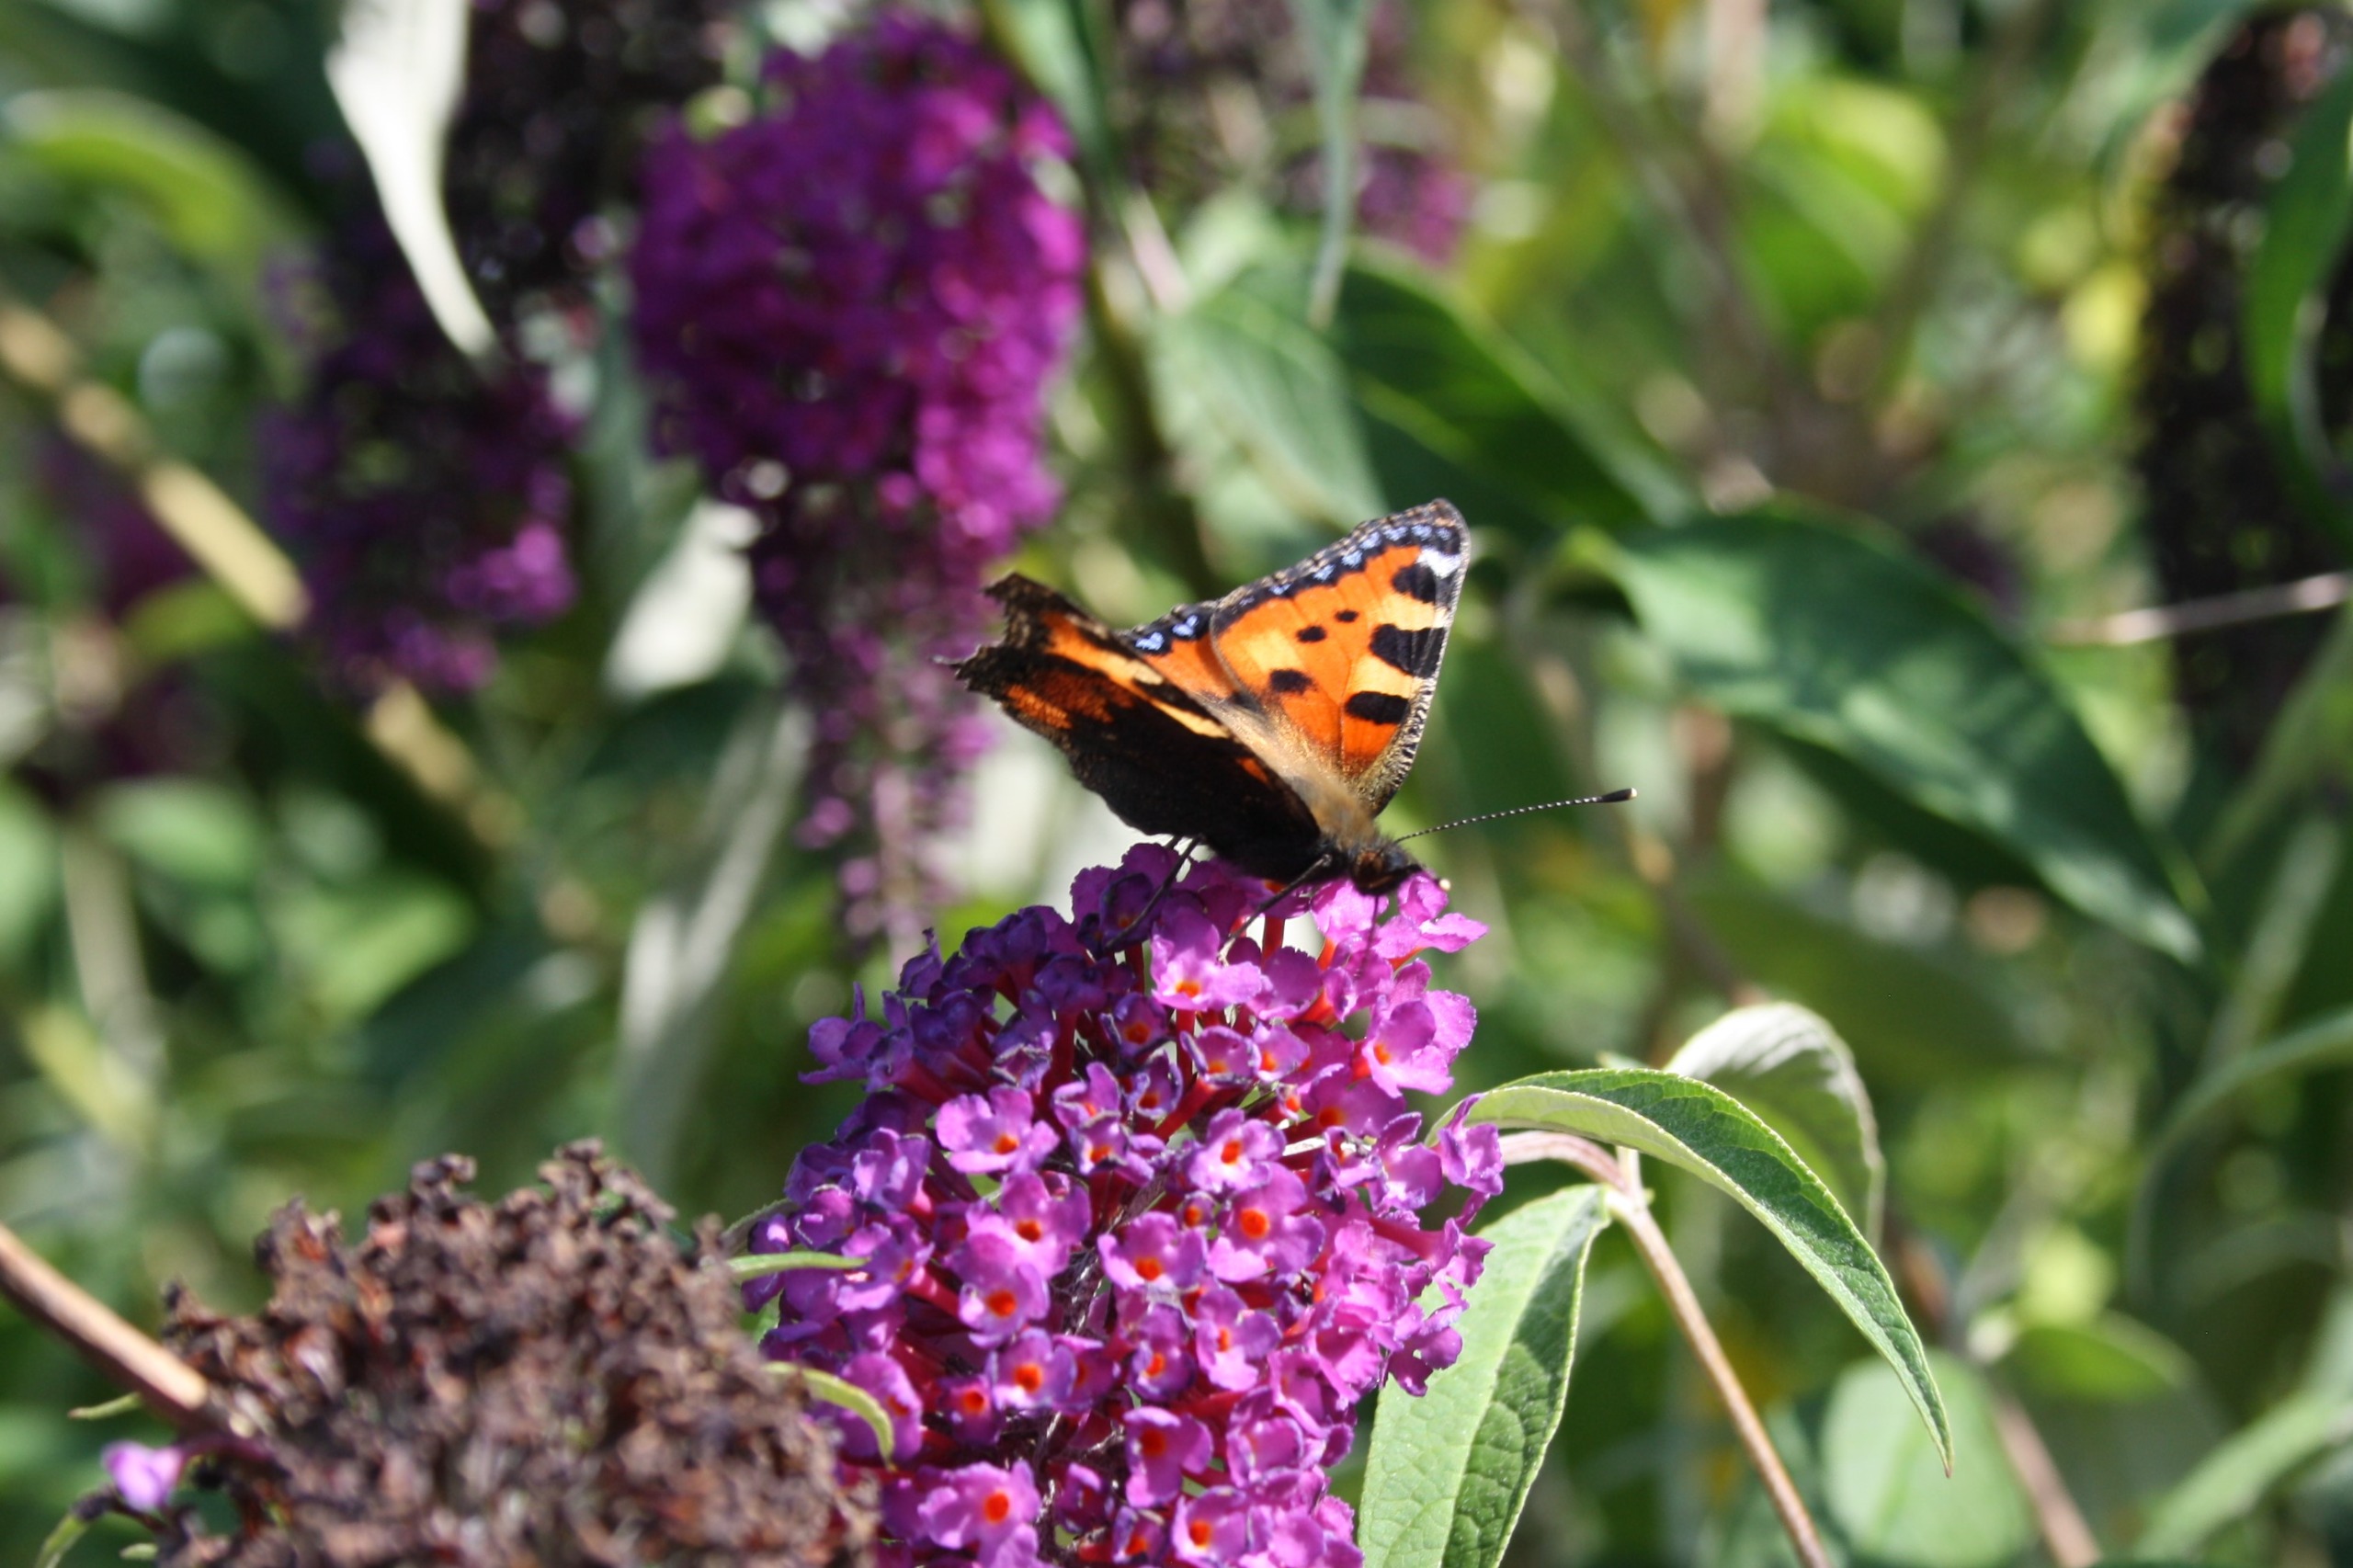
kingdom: Animalia
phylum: Arthropoda
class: Insecta
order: Lepidoptera
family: Nymphalidae
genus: Aglais
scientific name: Aglais urticae
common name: Nældens takvinge
